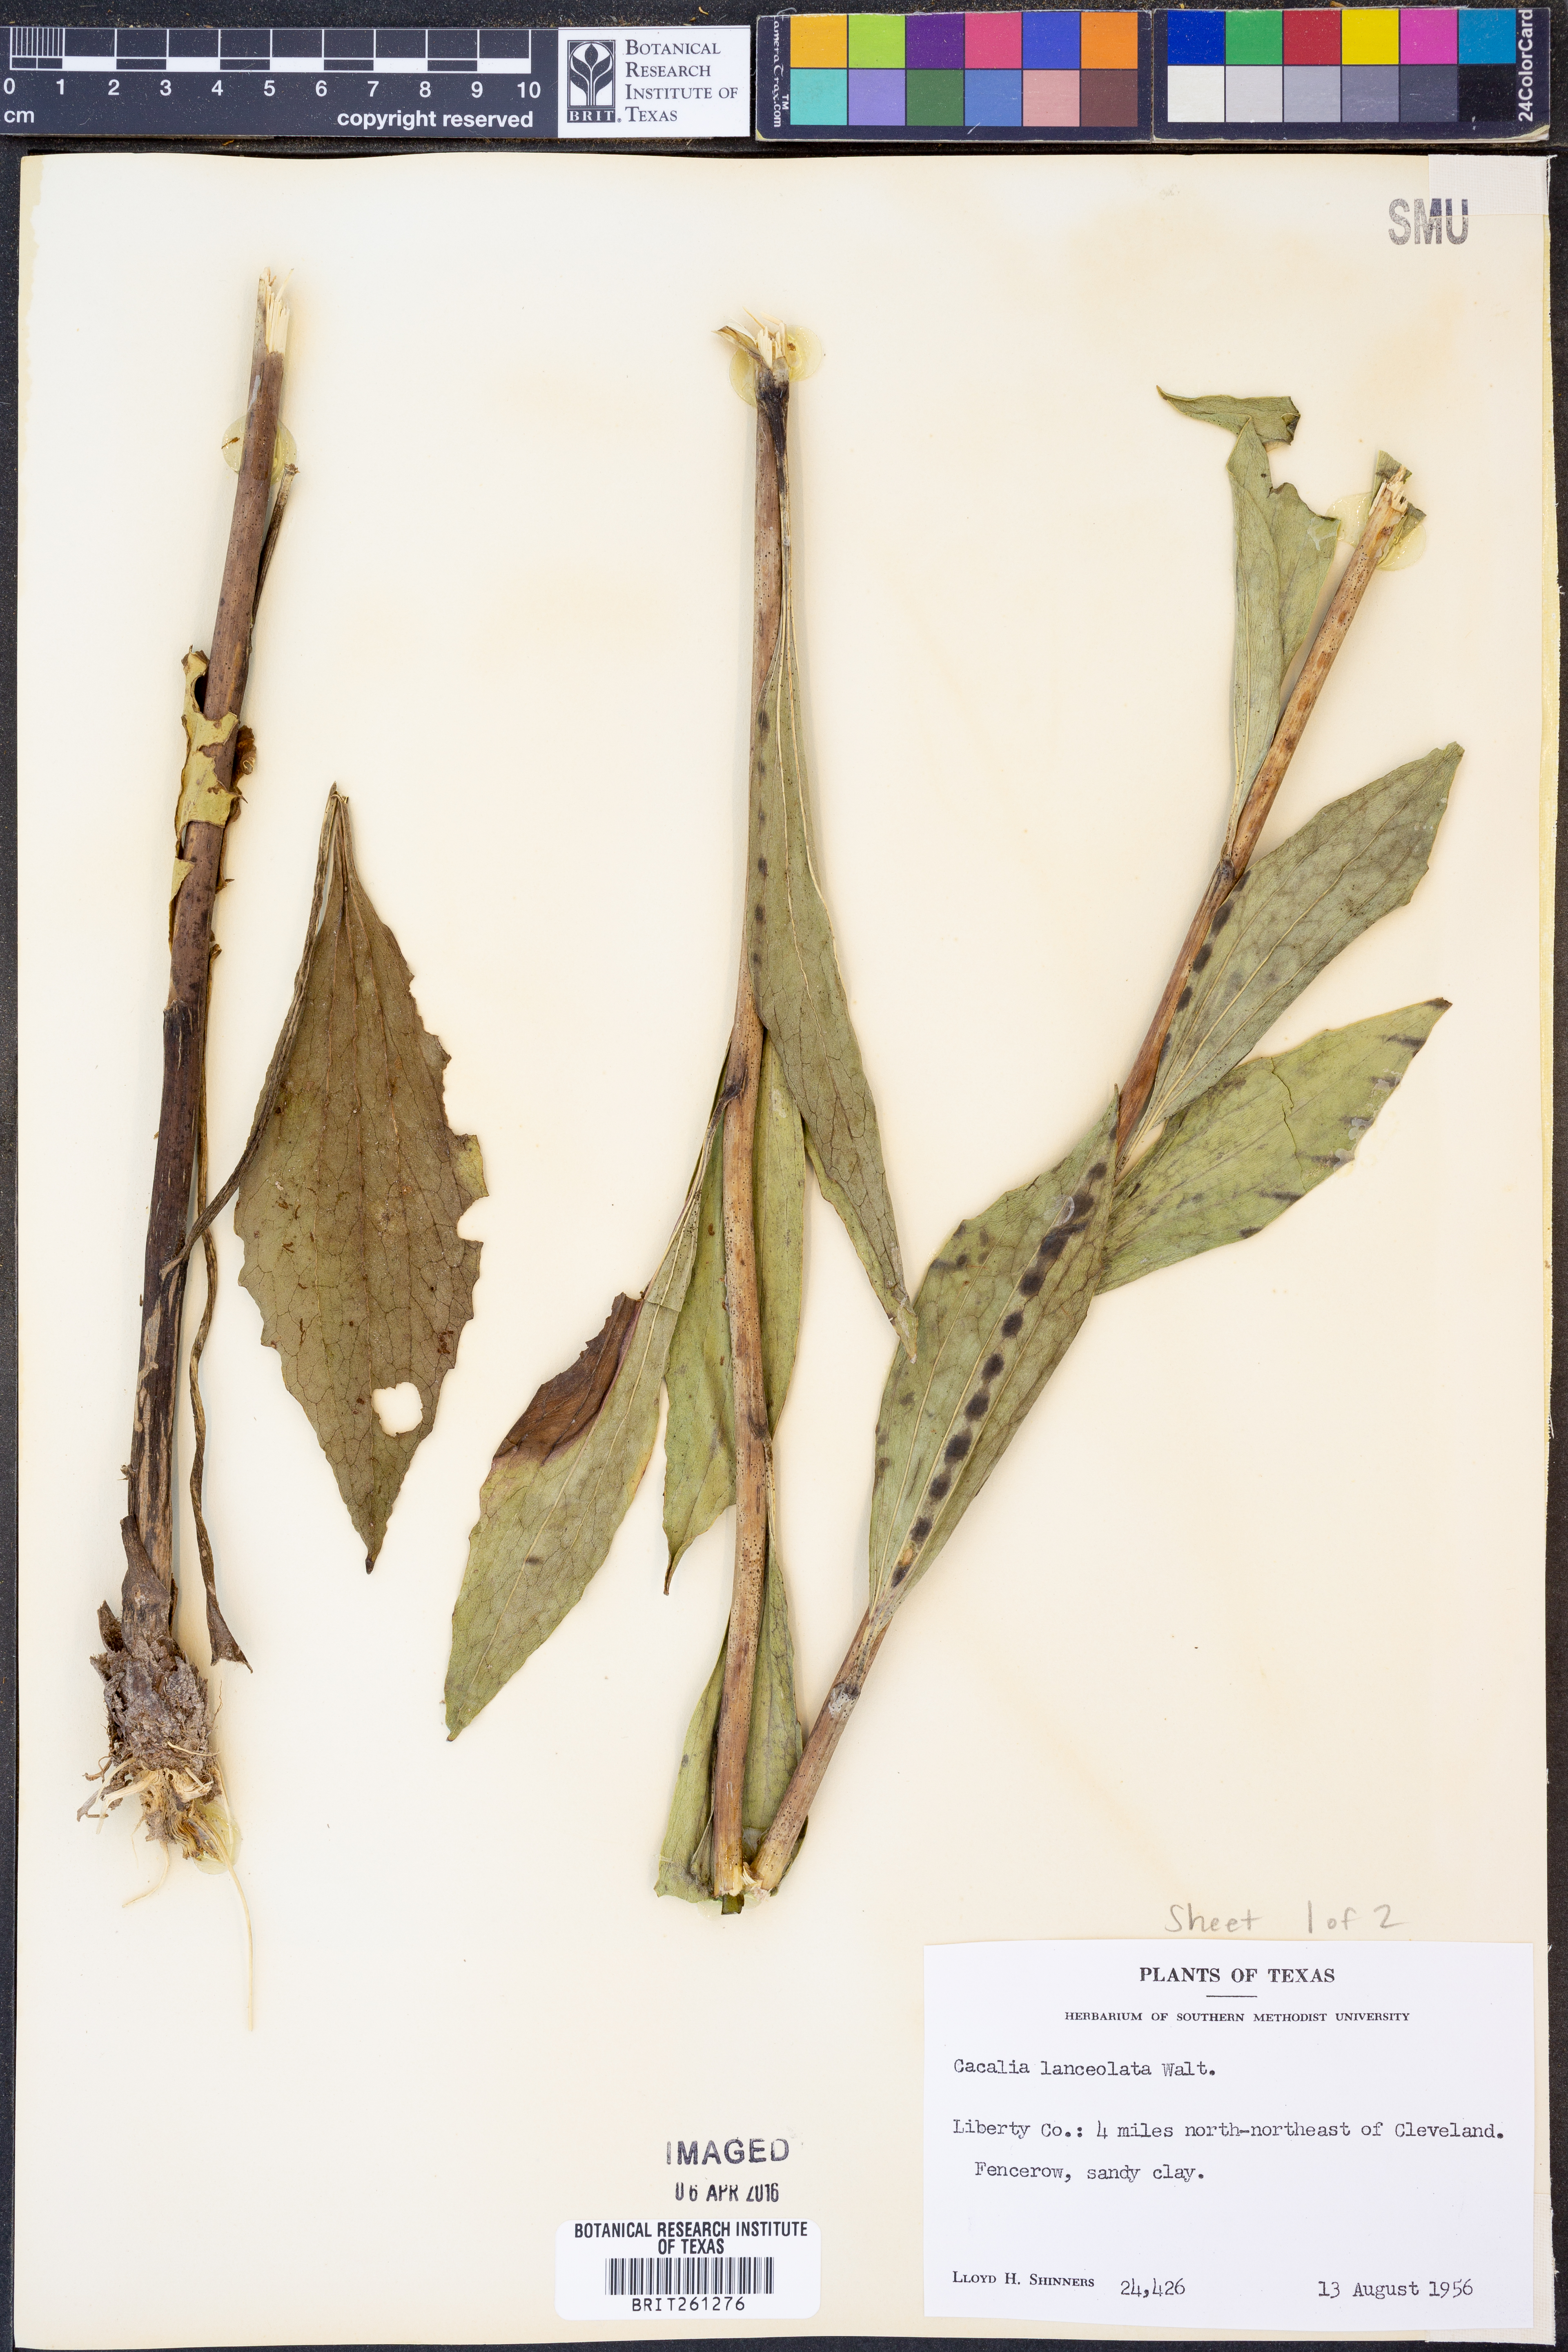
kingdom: Plantae
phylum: Tracheophyta
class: Magnoliopsida
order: Asterales
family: Asteraceae
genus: Arnoglossum
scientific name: Arnoglossum ovatum
